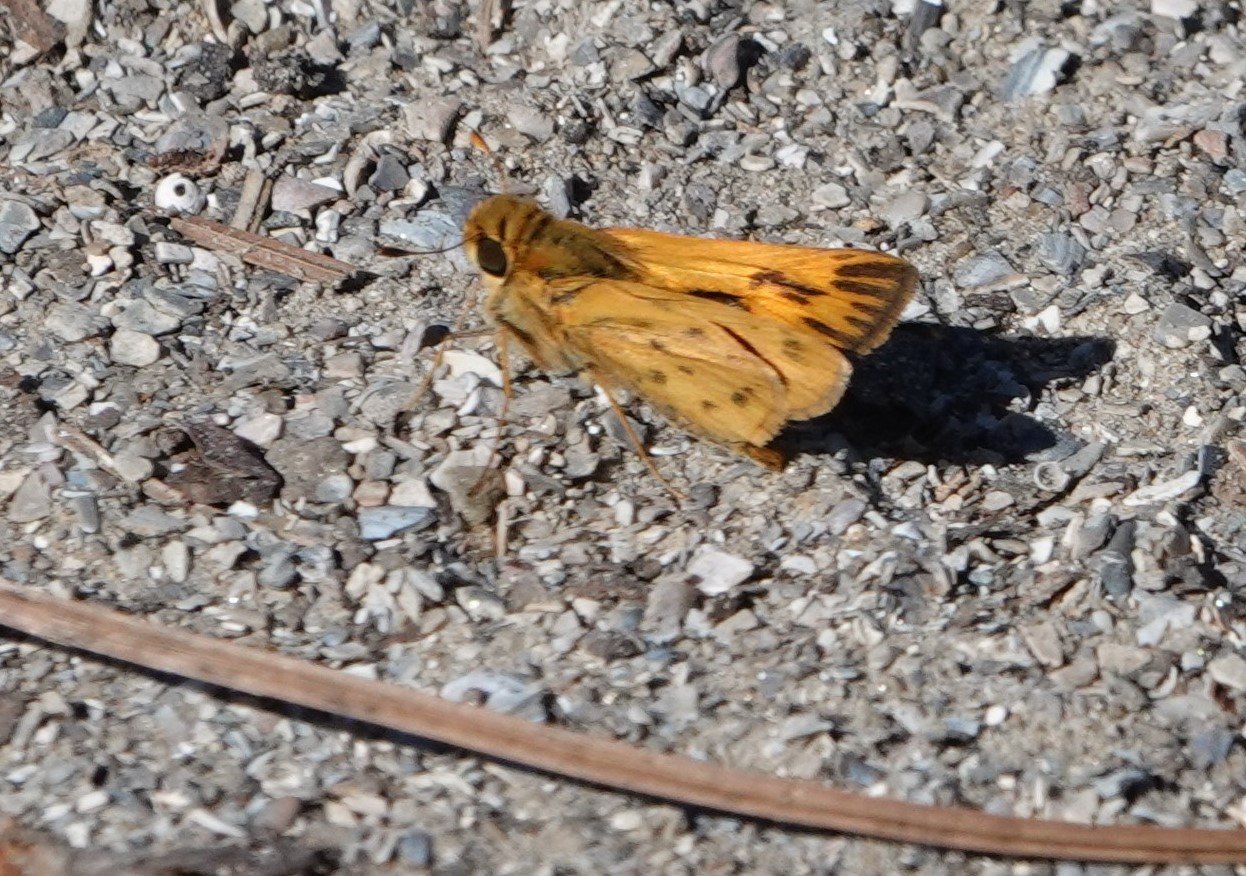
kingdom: Animalia
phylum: Arthropoda
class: Insecta
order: Lepidoptera
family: Hesperiidae
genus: Hylephila
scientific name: Hylephila phyleus
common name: Fiery Skipper
